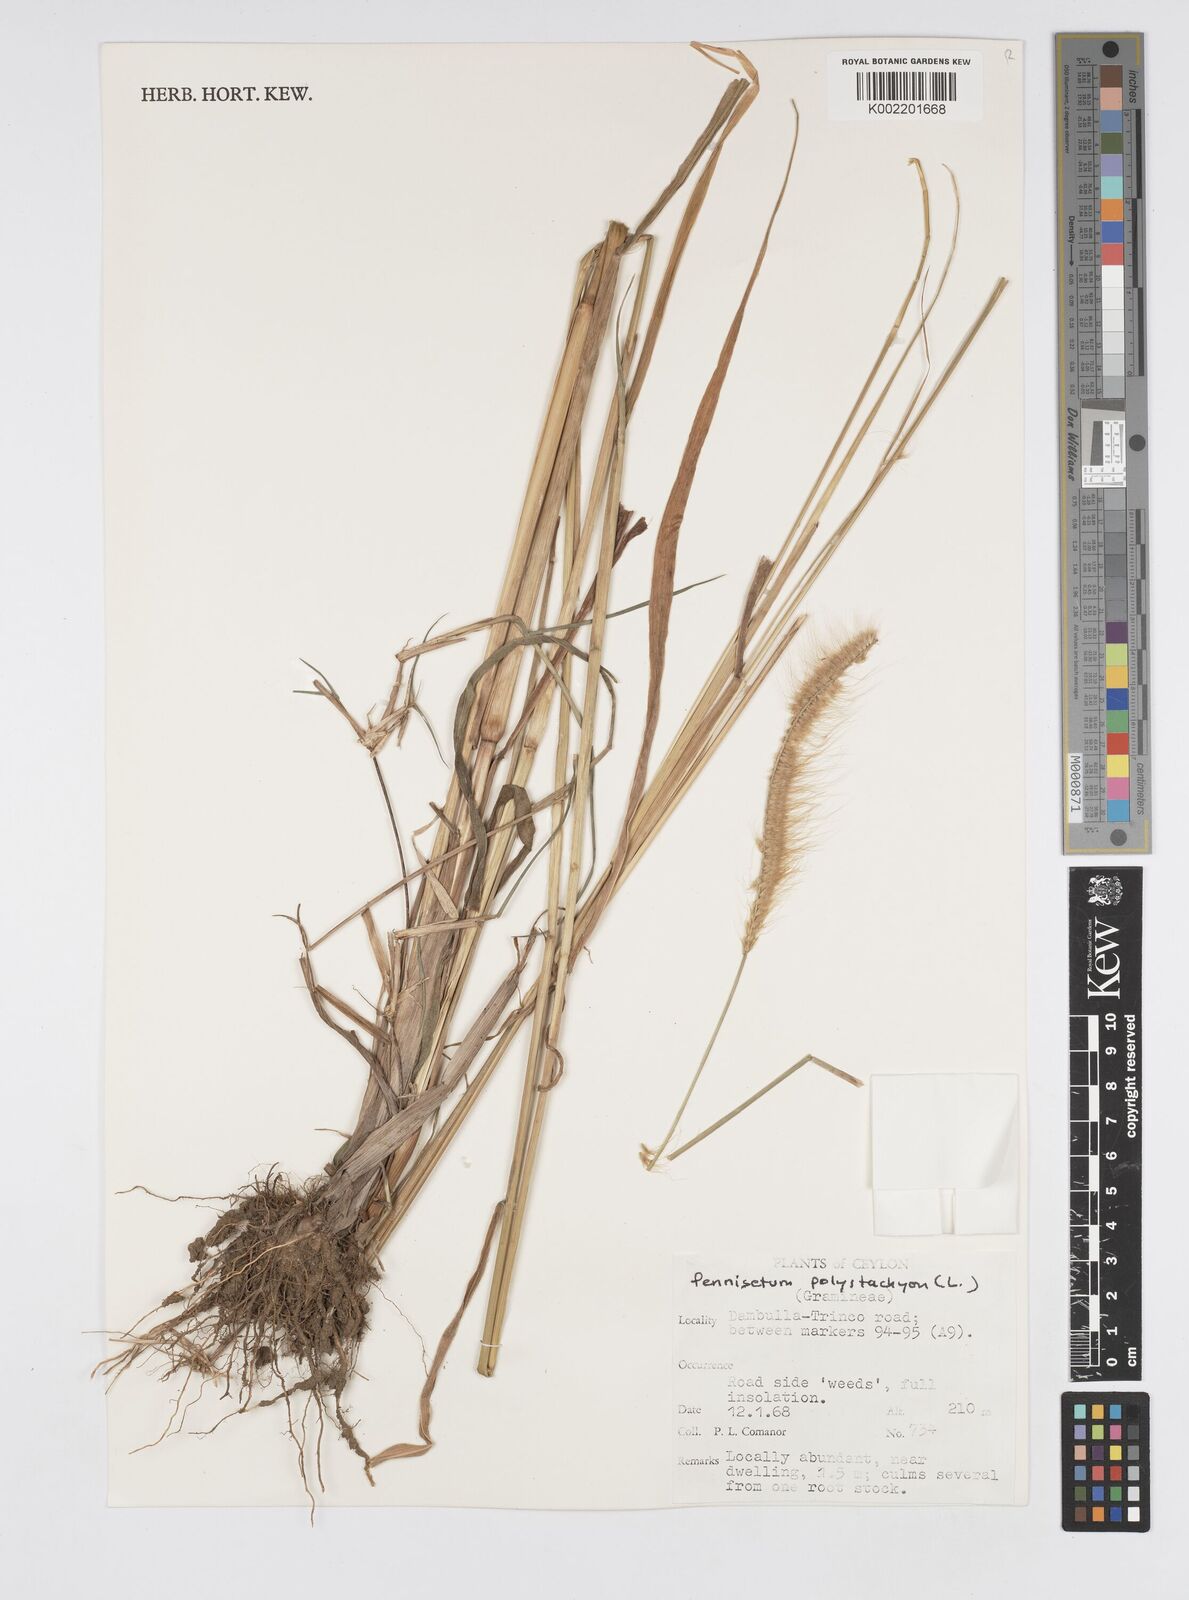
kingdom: Plantae
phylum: Tracheophyta
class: Liliopsida
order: Poales
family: Poaceae
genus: Setaria
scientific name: Setaria parviflora
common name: Knotroot bristle-grass
